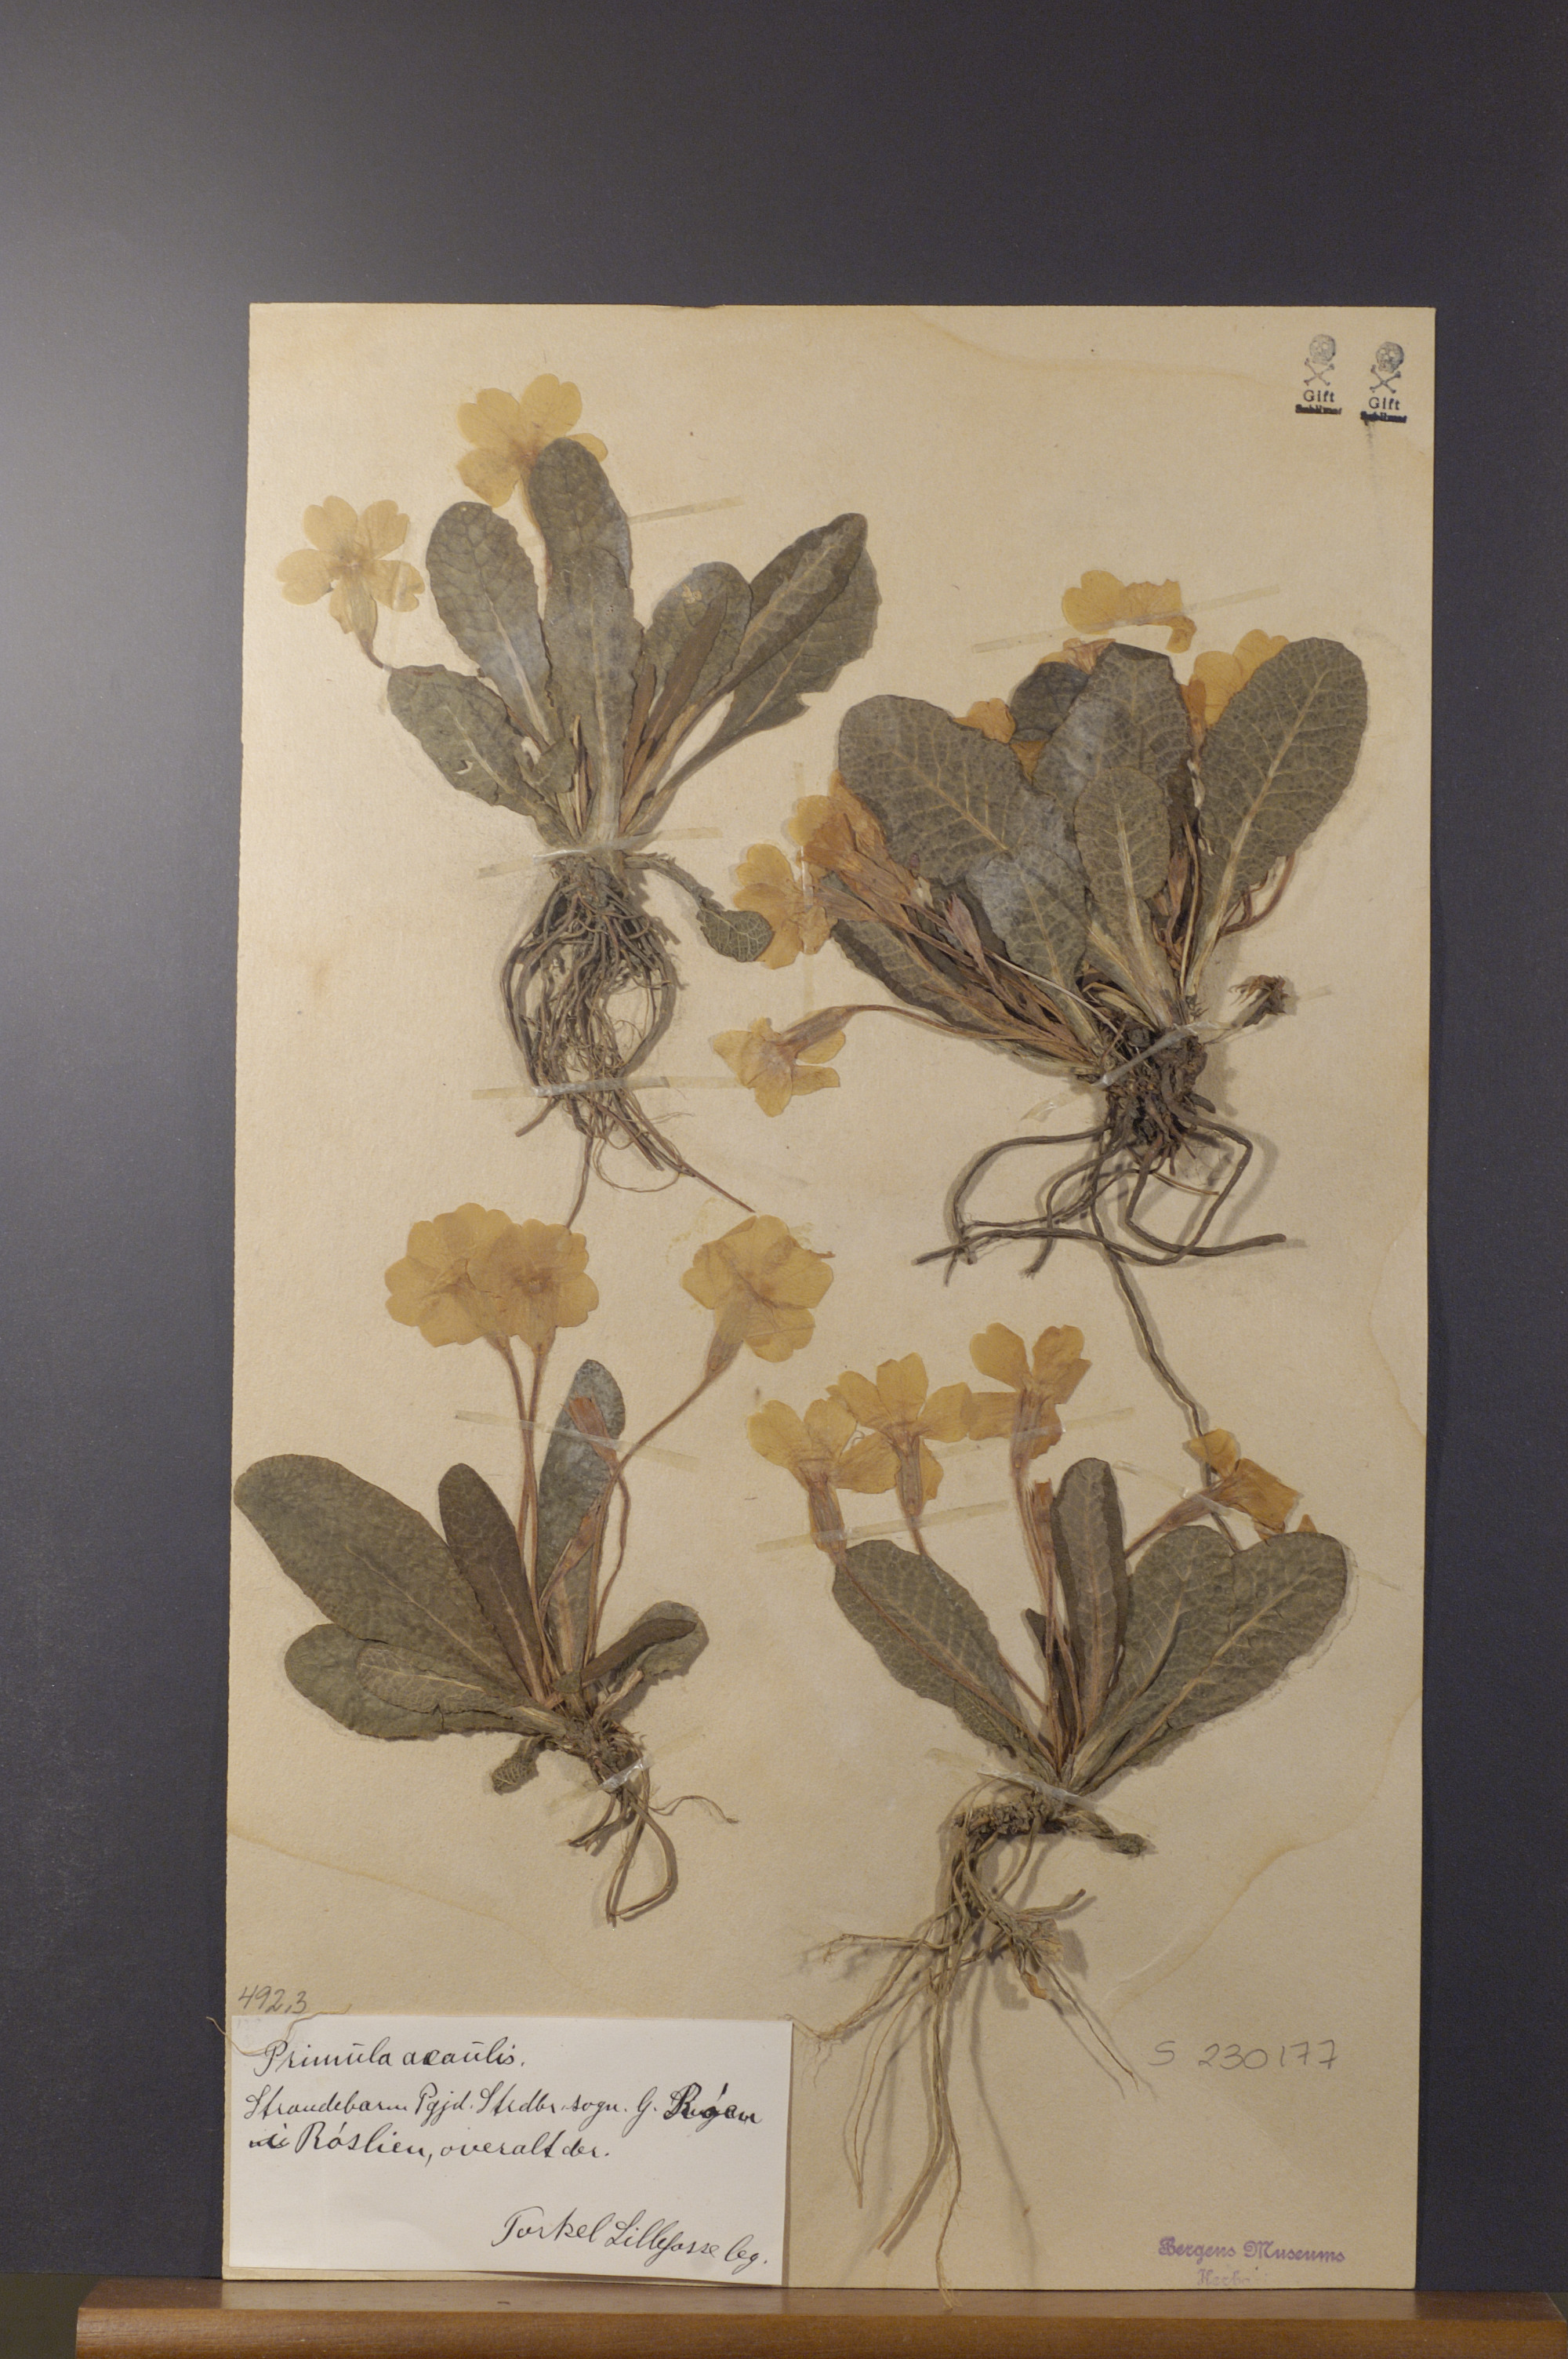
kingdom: Plantae
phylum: Tracheophyta
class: Magnoliopsida
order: Ericales
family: Primulaceae
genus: Primula
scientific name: Primula vulgaris
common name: Primrose
